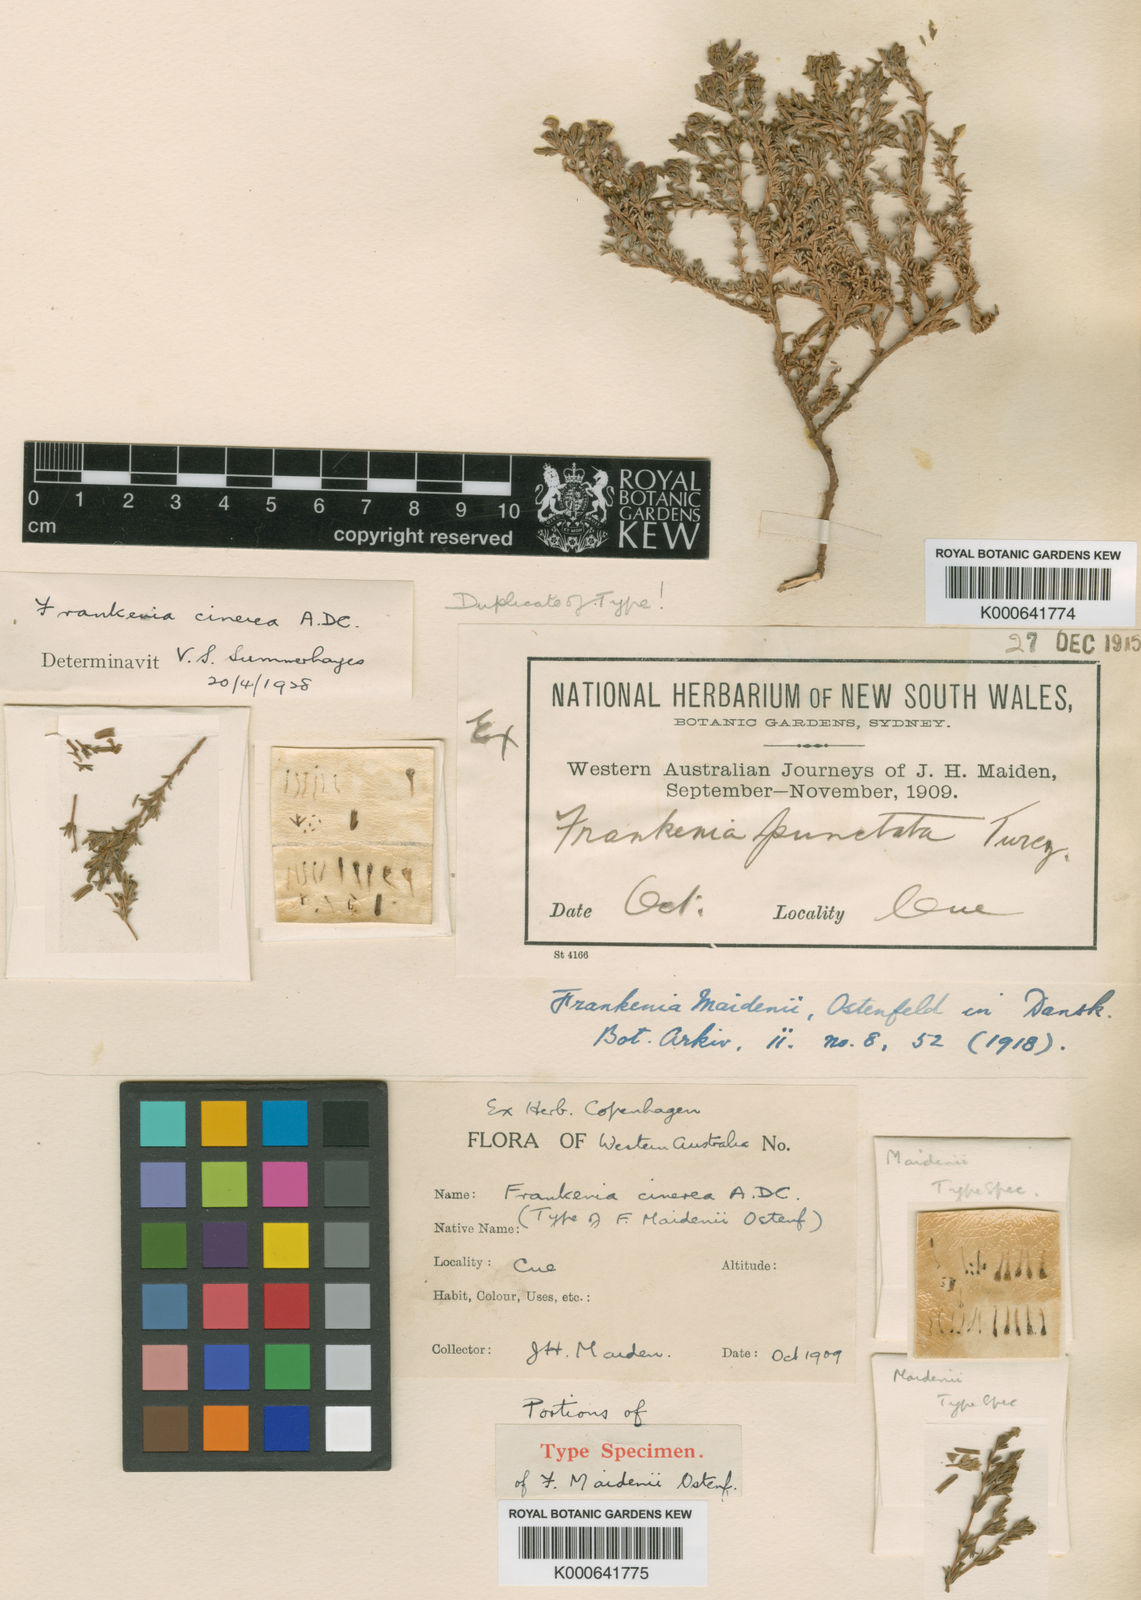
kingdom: Plantae
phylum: Tracheophyta
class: Magnoliopsida
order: Caryophyllales
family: Frankeniaceae
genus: Frankenia
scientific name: Frankenia cinerea
